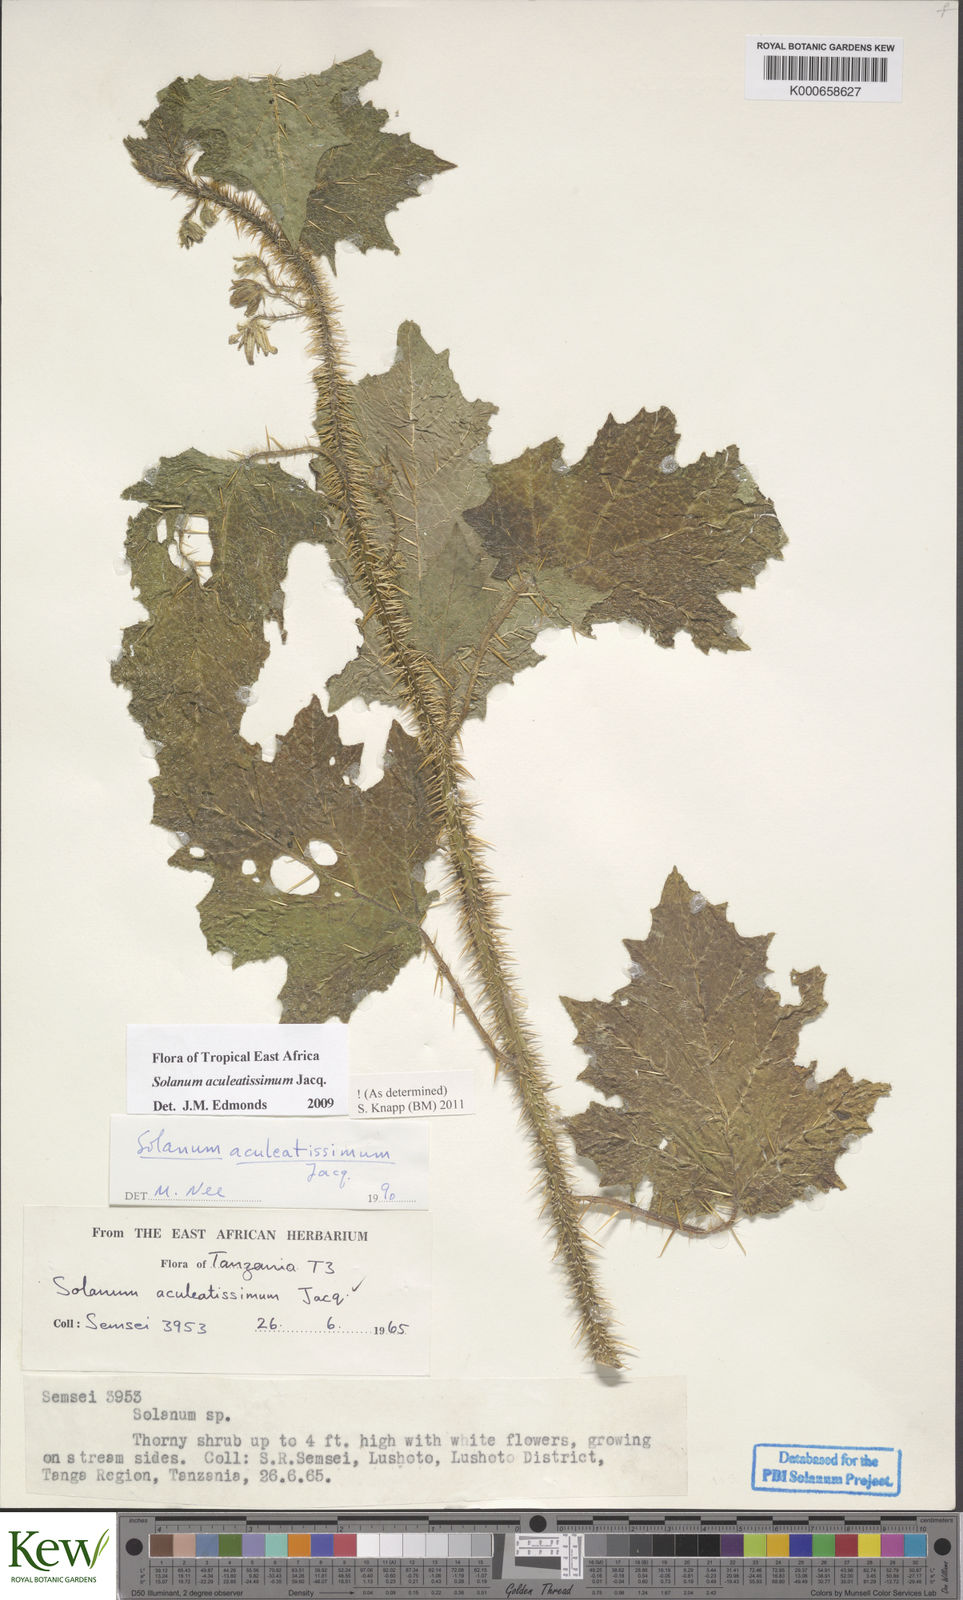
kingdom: Plantae
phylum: Tracheophyta
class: Magnoliopsida
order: Solanales
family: Solanaceae
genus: Solanum
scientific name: Solanum aculeatissimum
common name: Dutch eggplant
